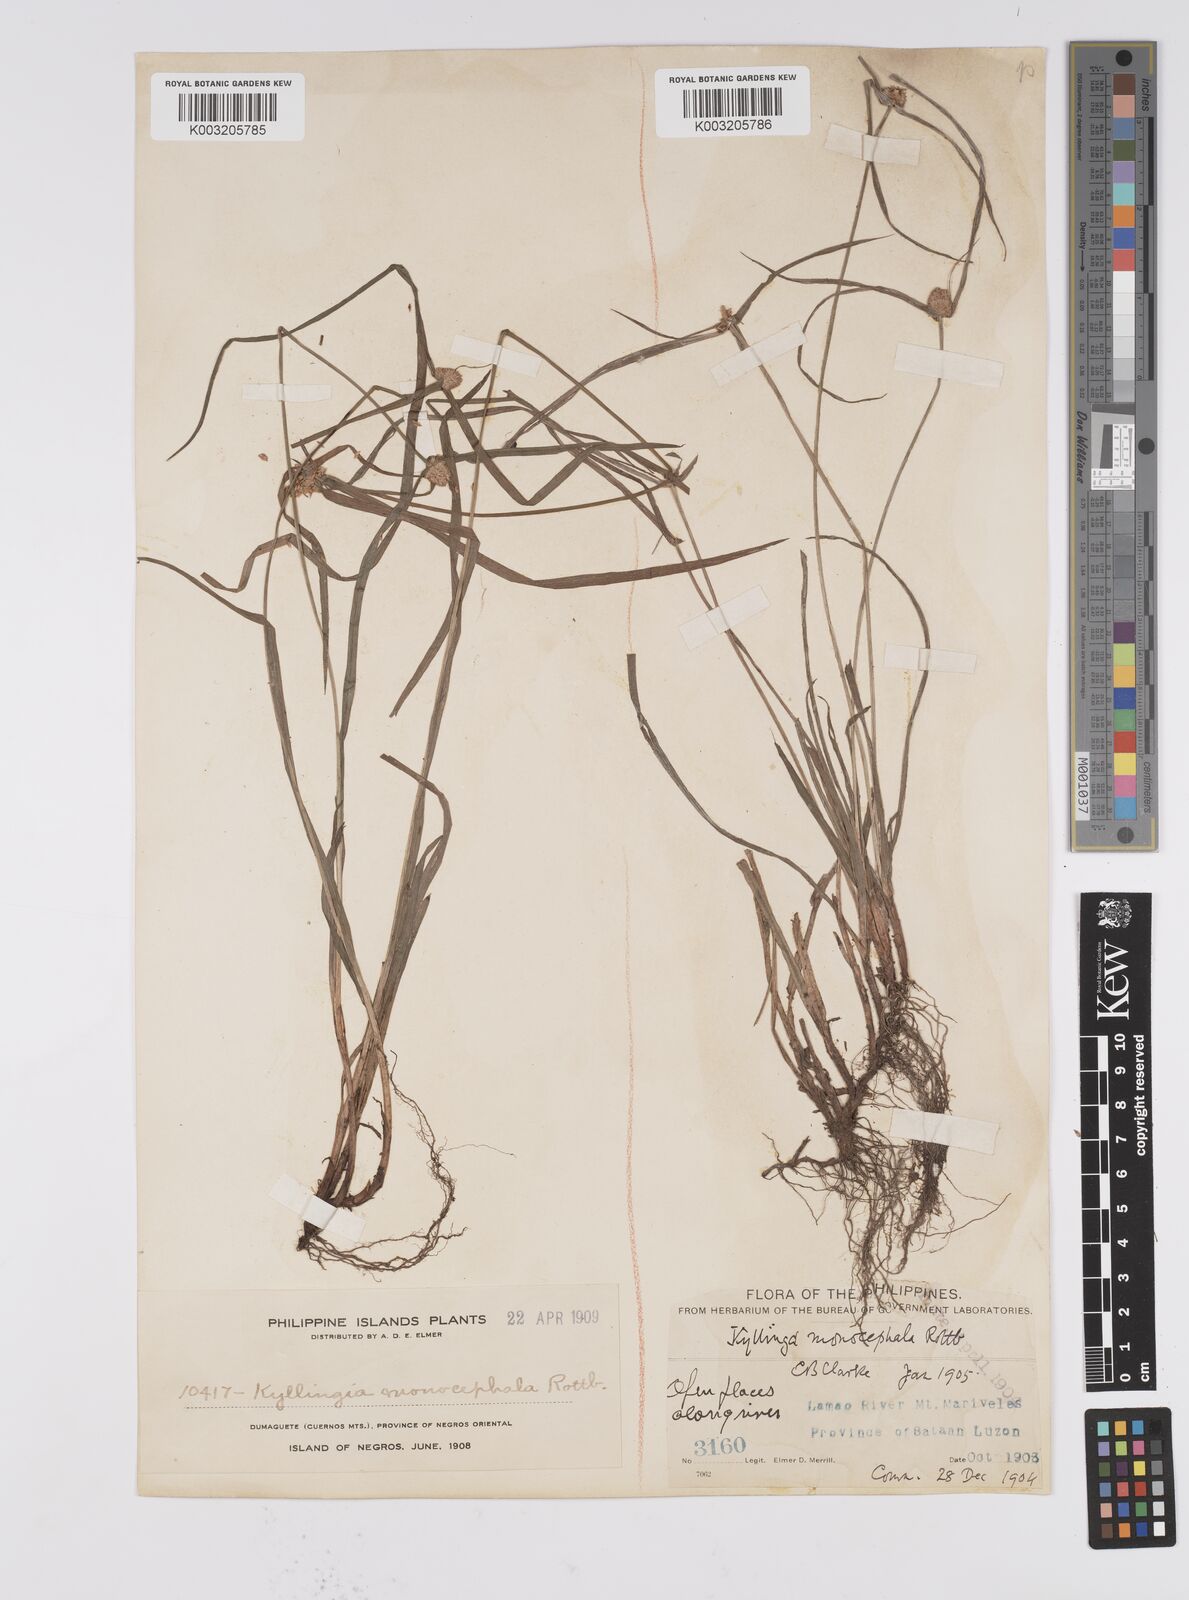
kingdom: Plantae
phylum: Tracheophyta
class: Liliopsida
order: Poales
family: Cyperaceae
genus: Cyperus
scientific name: Cyperus nemoralis
